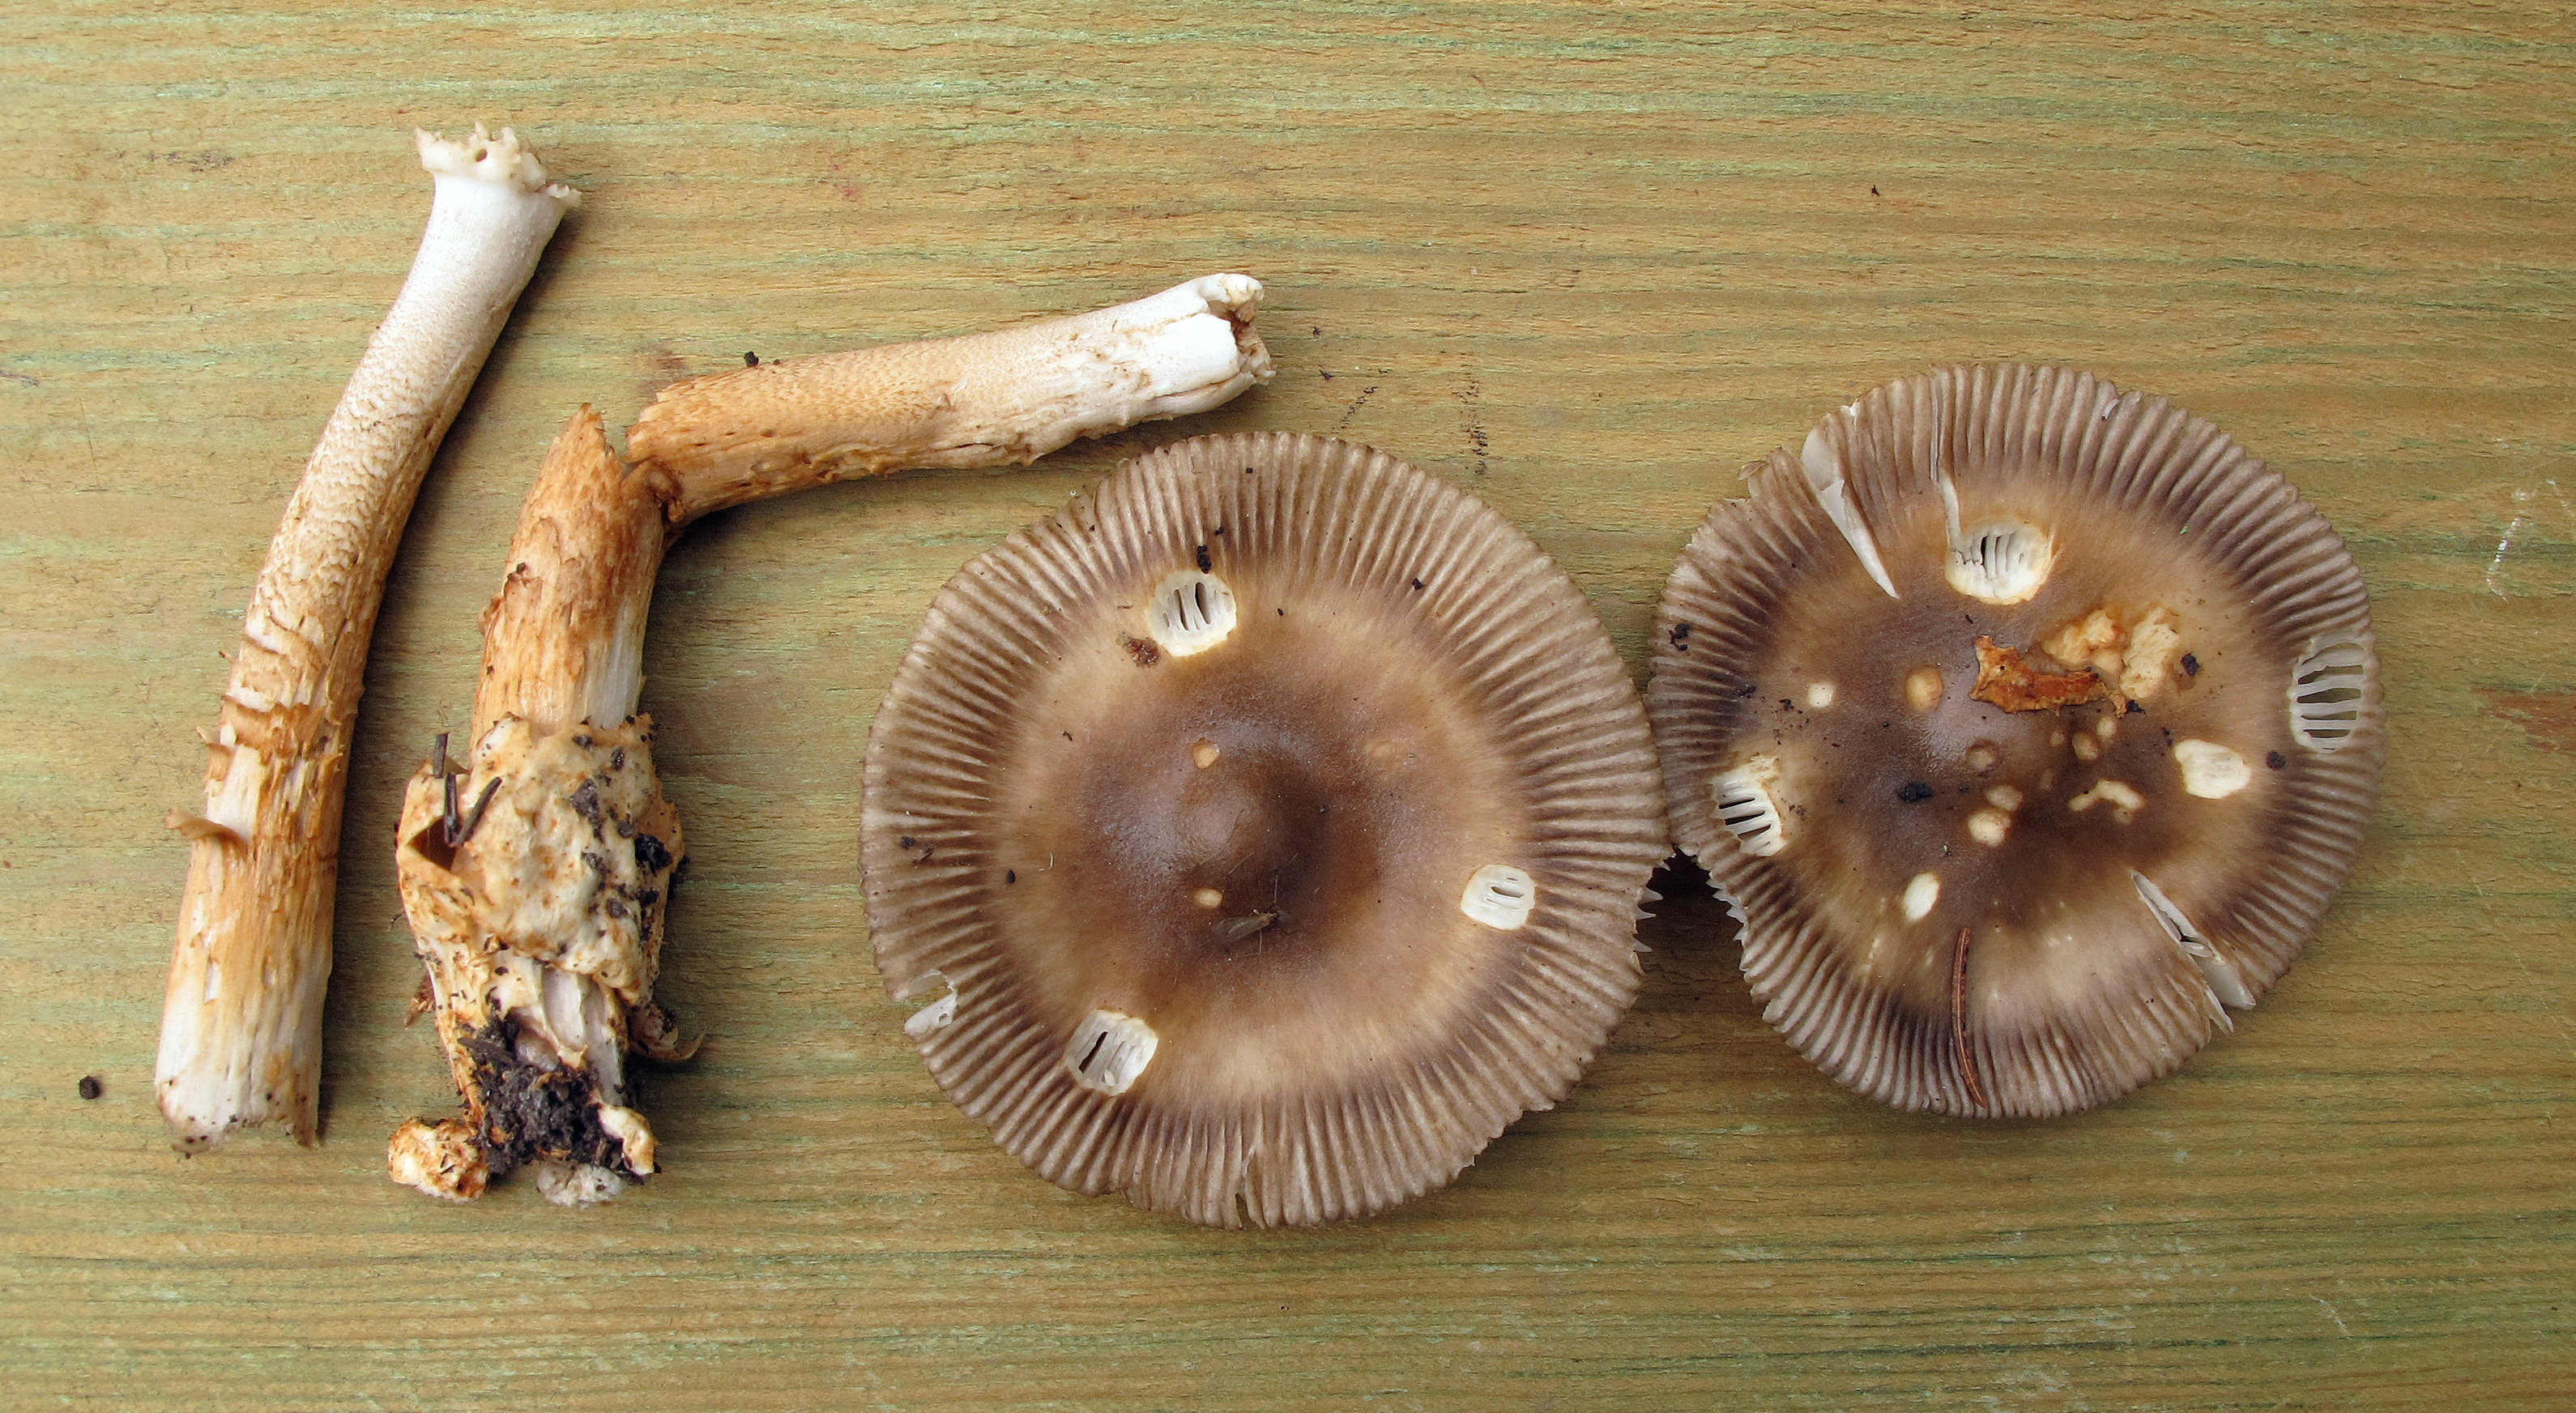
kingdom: Fungi
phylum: Basidiomycota
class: Agaricomycetes
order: Agaricales
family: Amanitaceae
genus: Amanita
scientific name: Amanita battarrae
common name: Banded amanita
